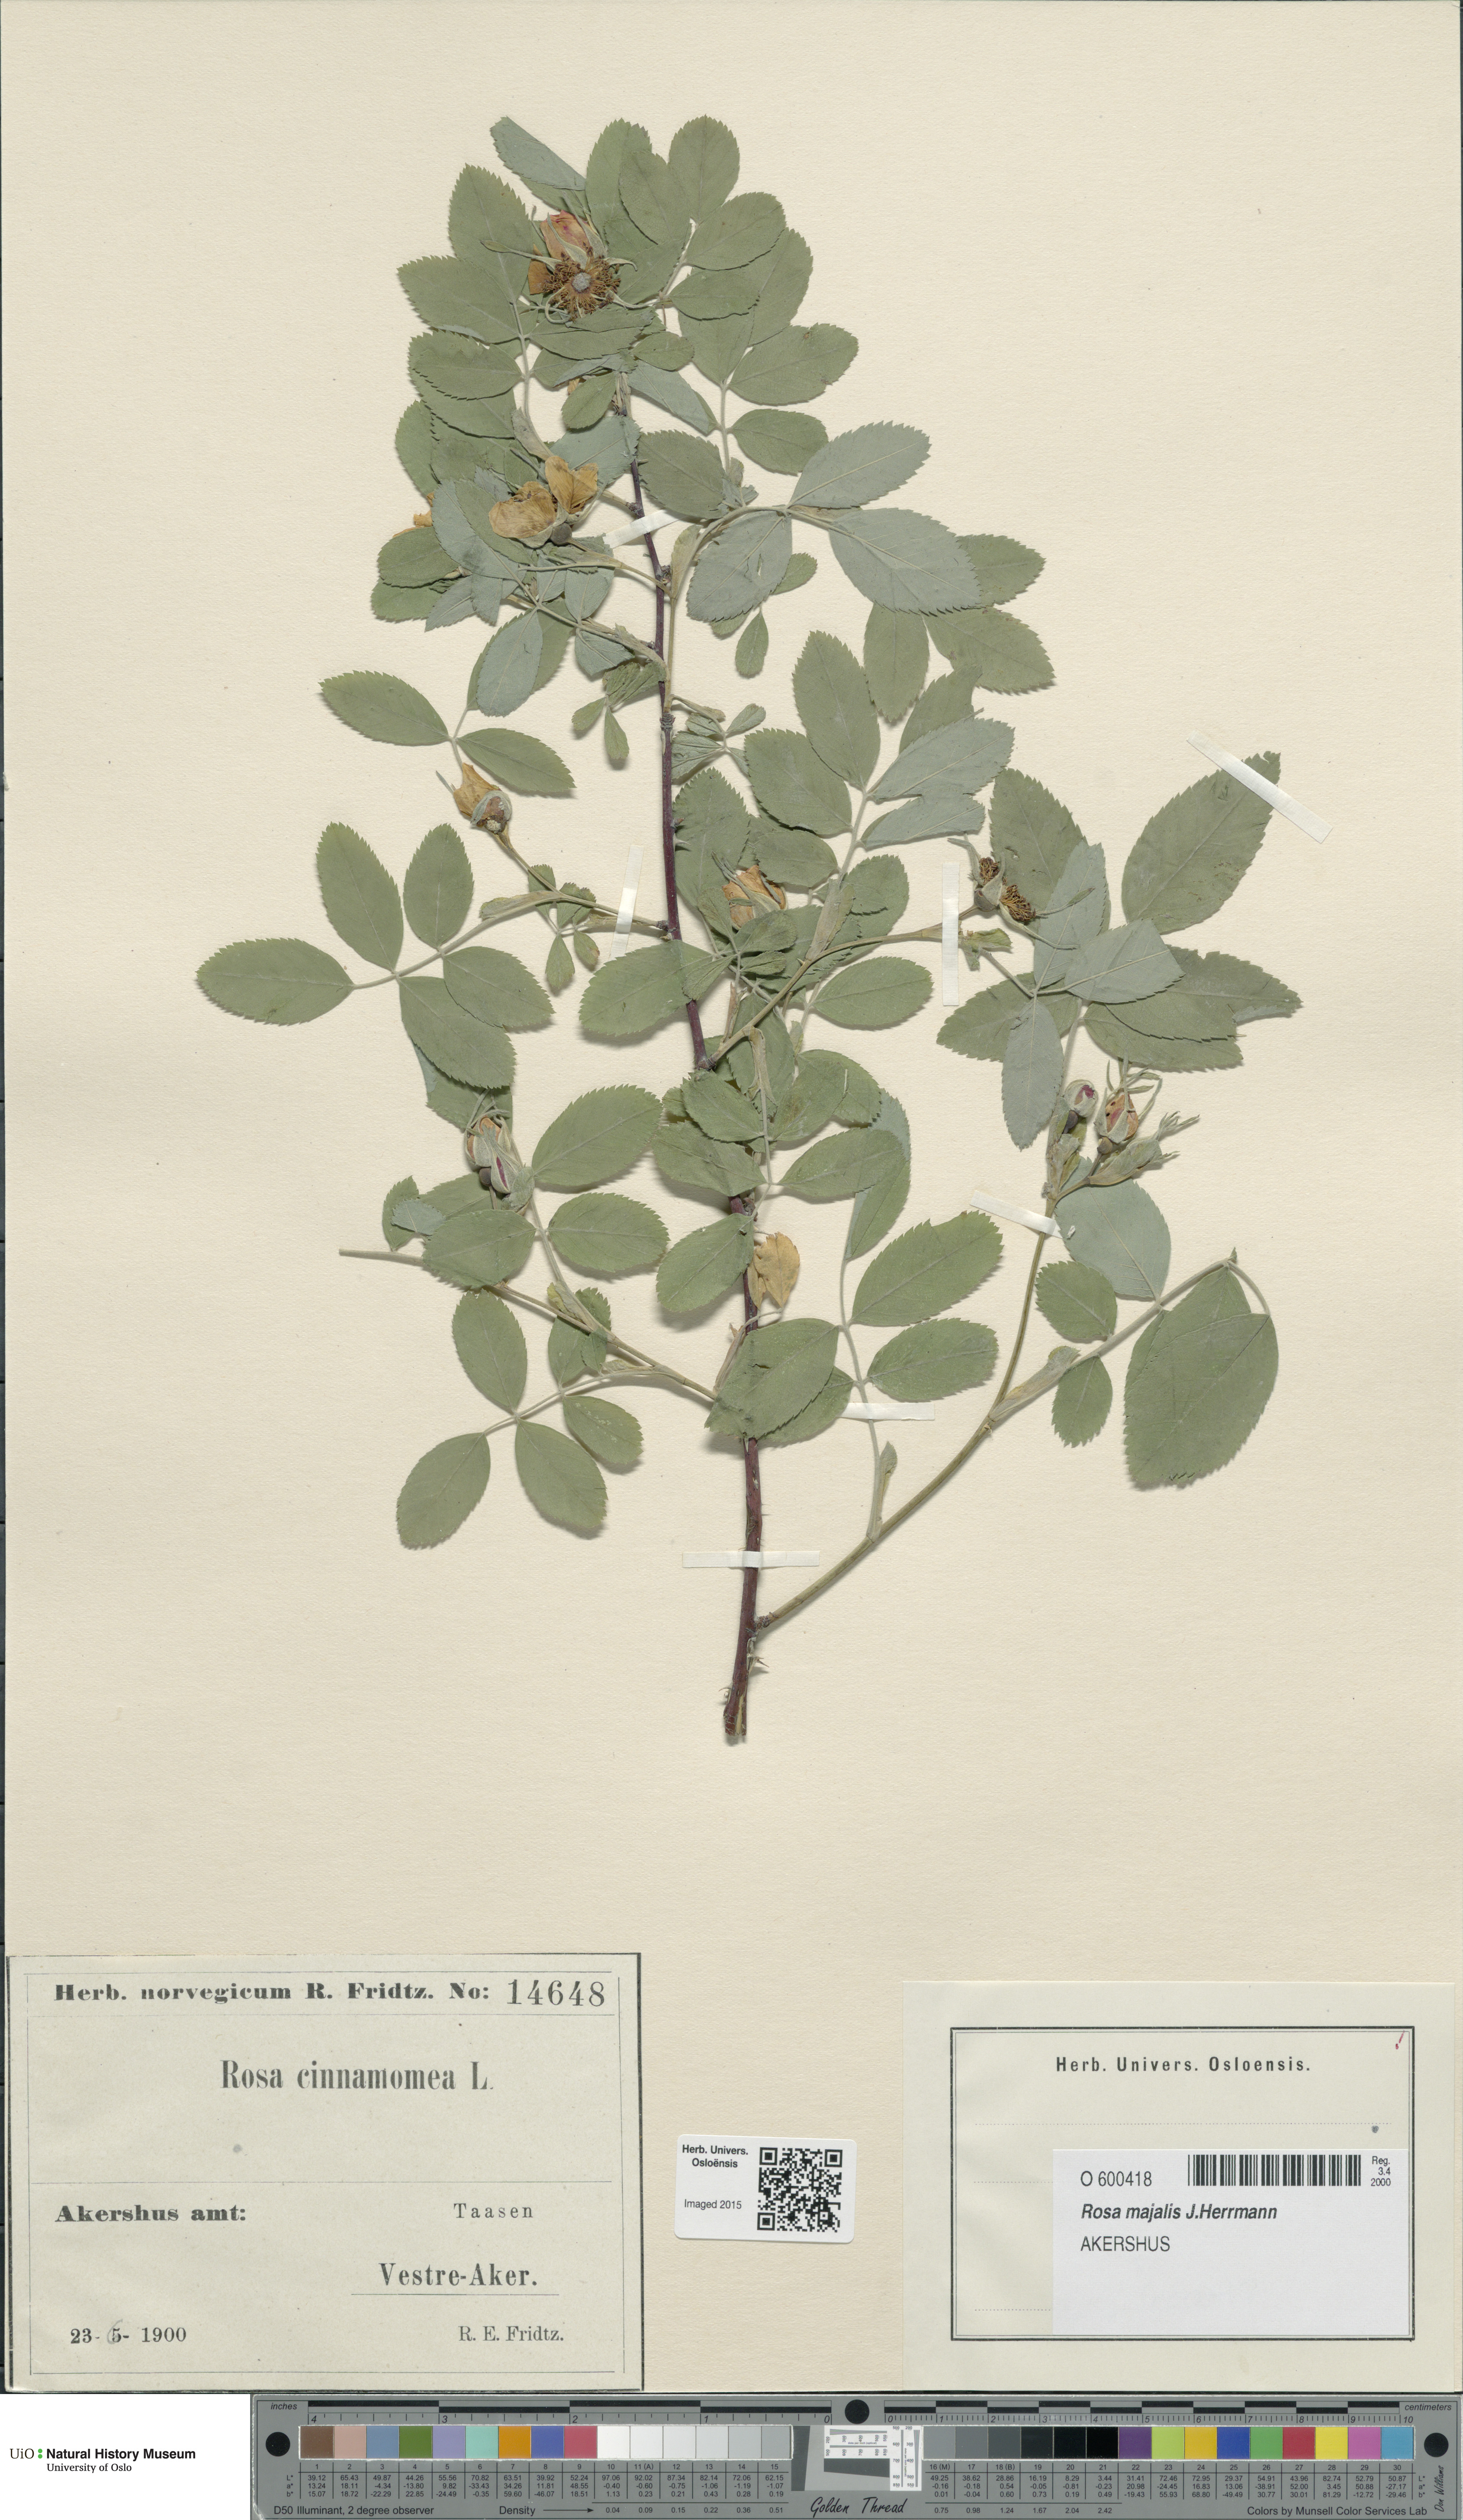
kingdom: Plantae
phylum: Tracheophyta
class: Magnoliopsida
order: Rosales
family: Rosaceae
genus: Rosa
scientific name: Rosa pendulina
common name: Alpine rose
